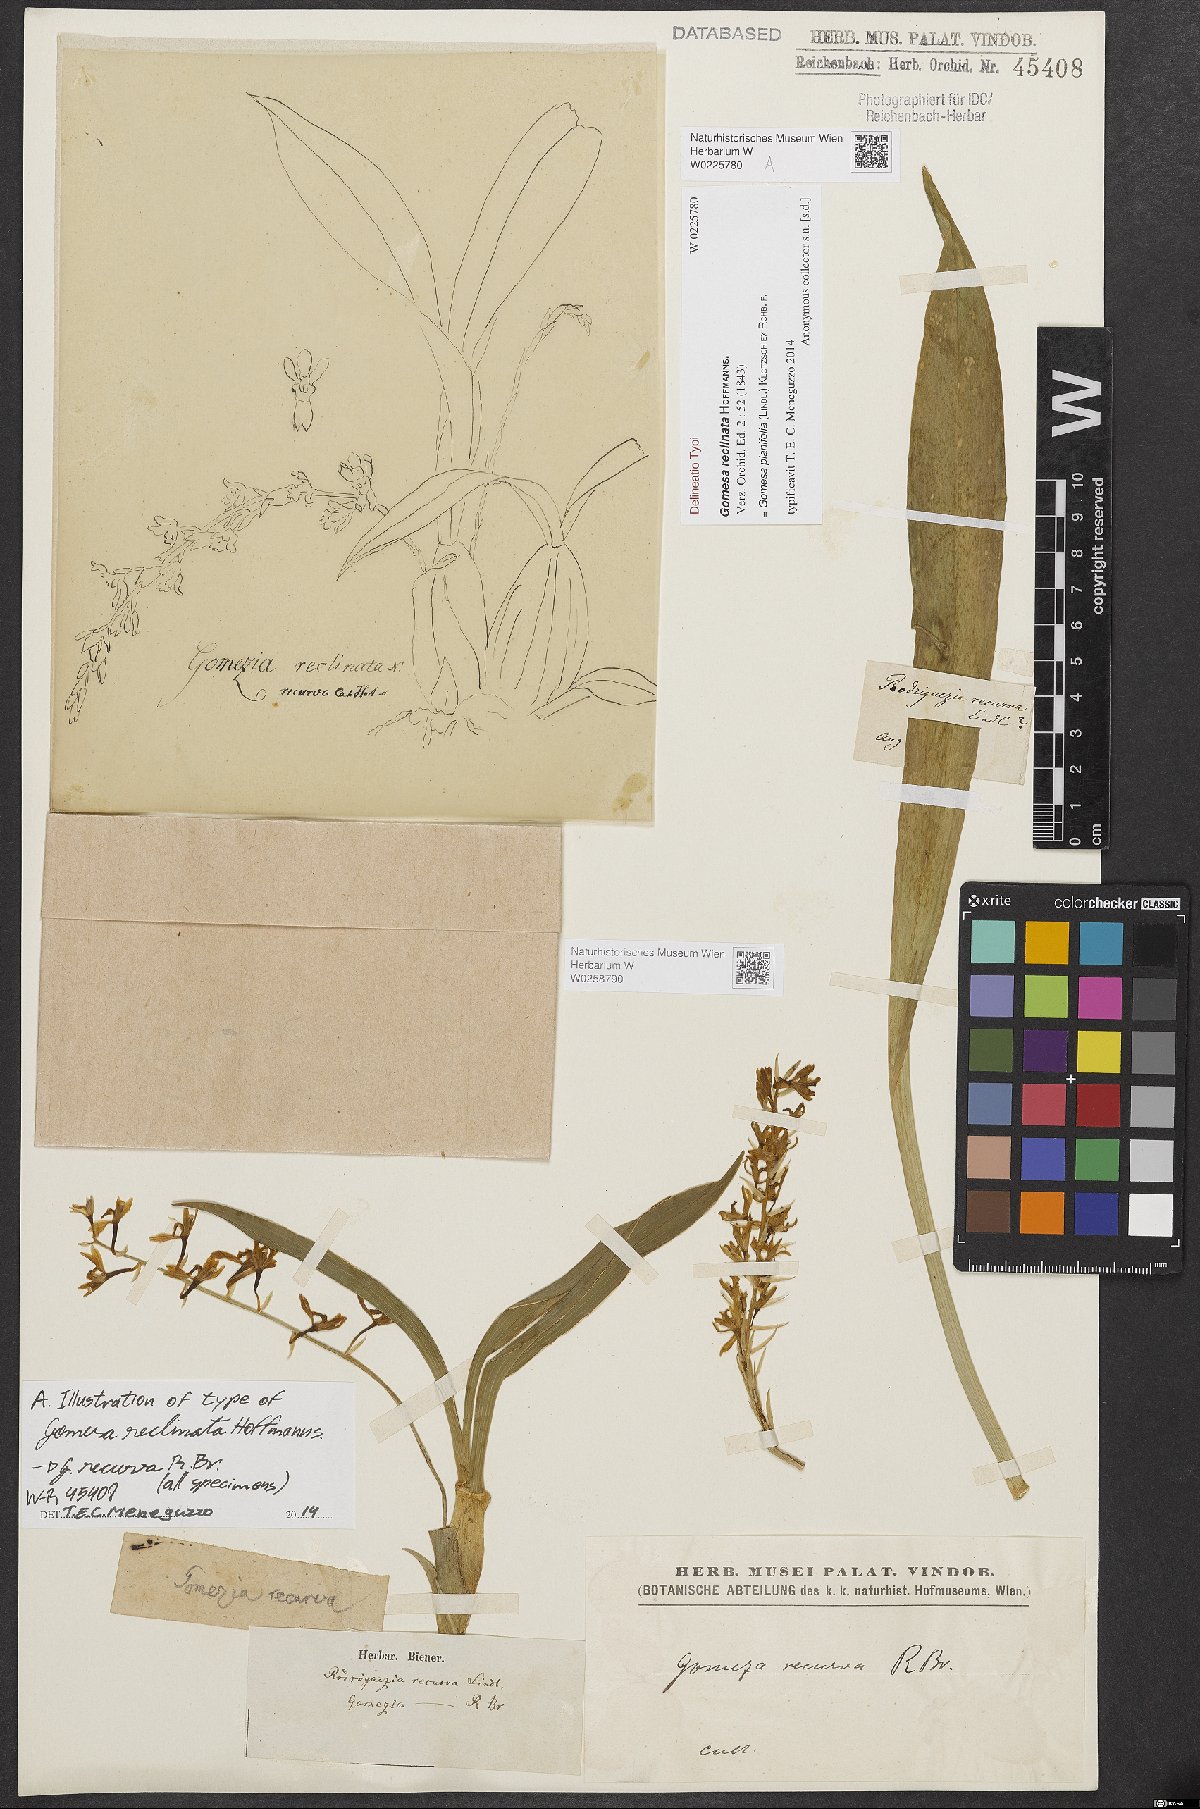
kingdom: Plantae
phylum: Tracheophyta
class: Liliopsida
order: Asparagales
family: Orchidaceae
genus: Gomesa
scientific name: Gomesa recurva
